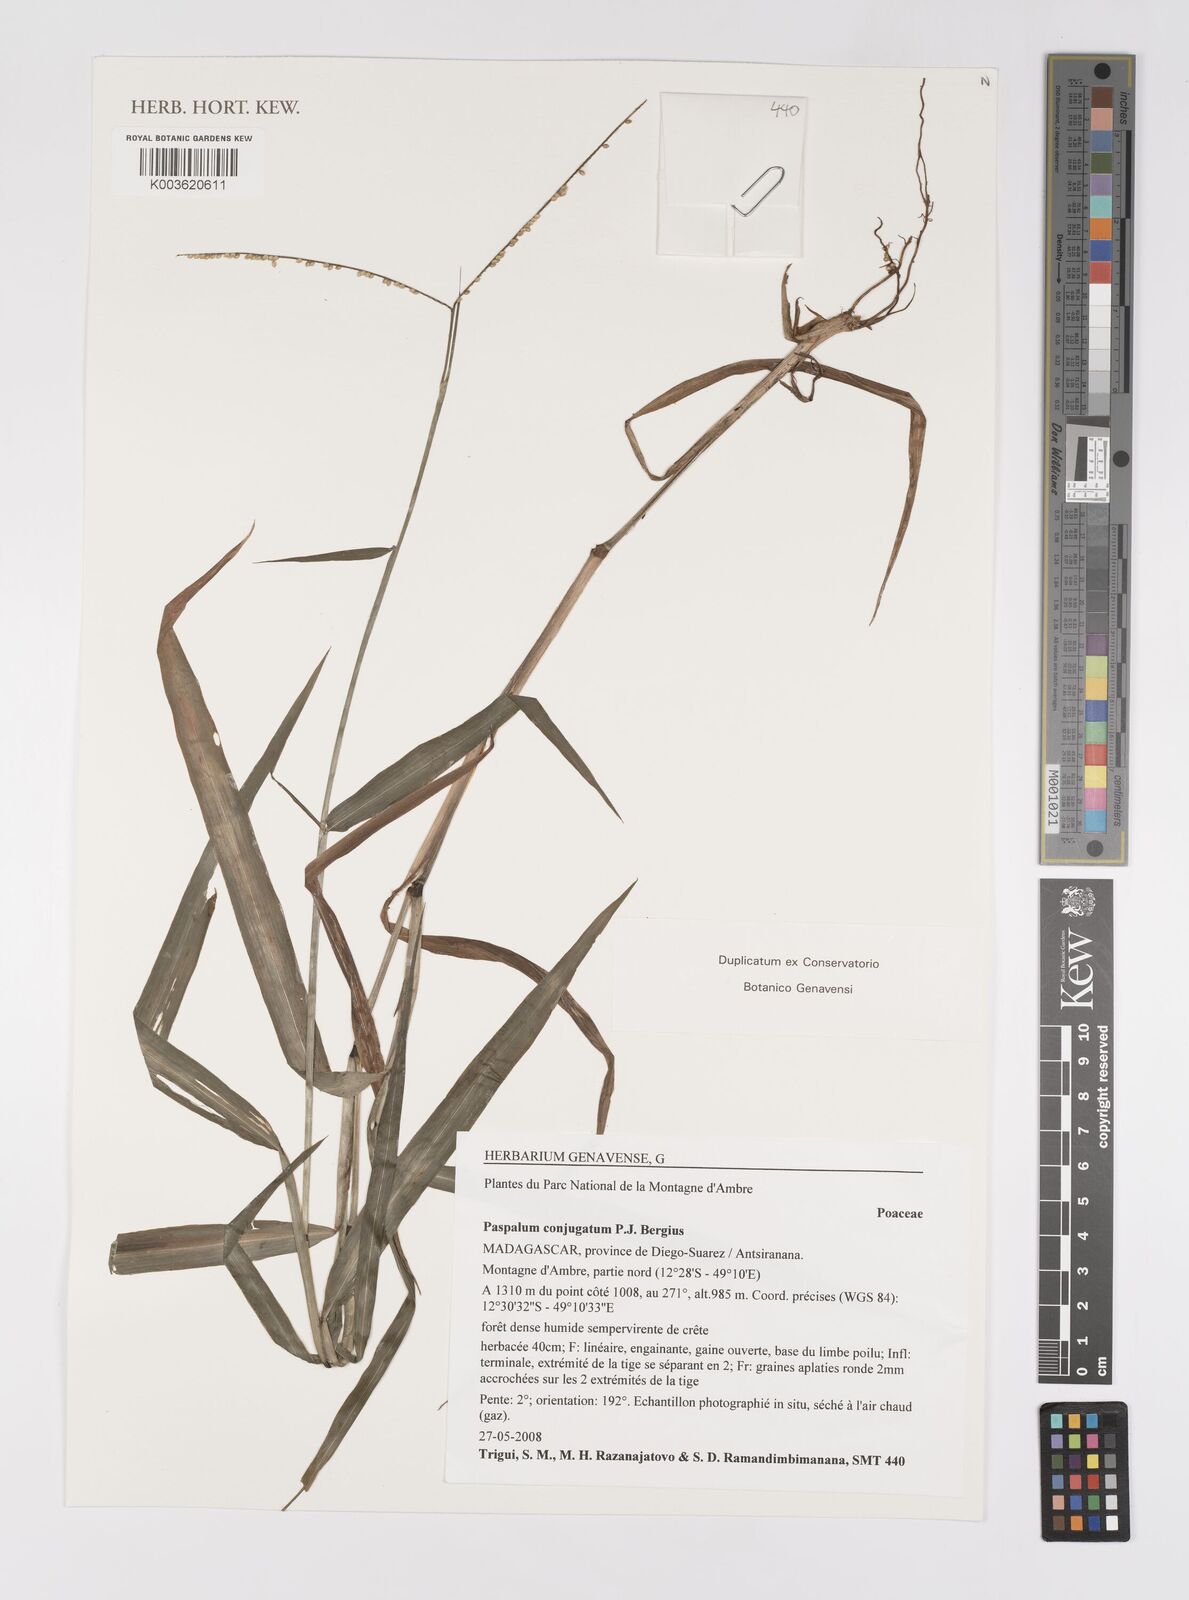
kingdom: Plantae
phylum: Tracheophyta
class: Liliopsida
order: Poales
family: Poaceae
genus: Paspalum
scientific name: Paspalum conjugatum
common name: Hilograss
